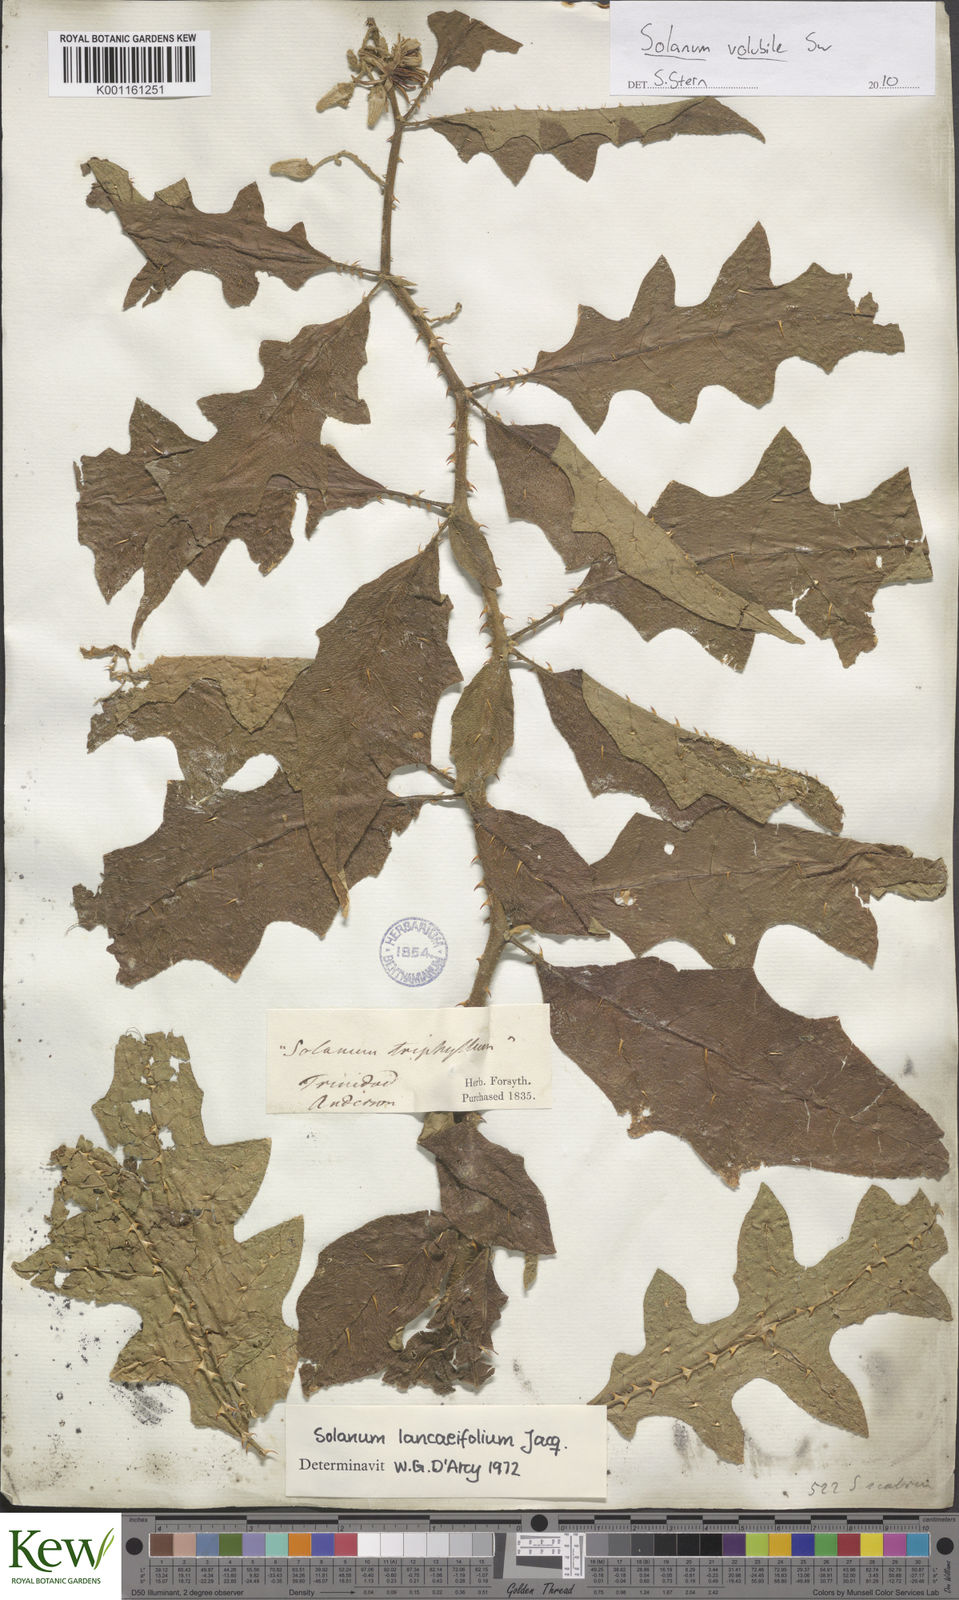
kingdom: Plantae
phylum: Tracheophyta
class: Magnoliopsida
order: Solanales
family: Solanaceae
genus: Solanum
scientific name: Solanum volubile
